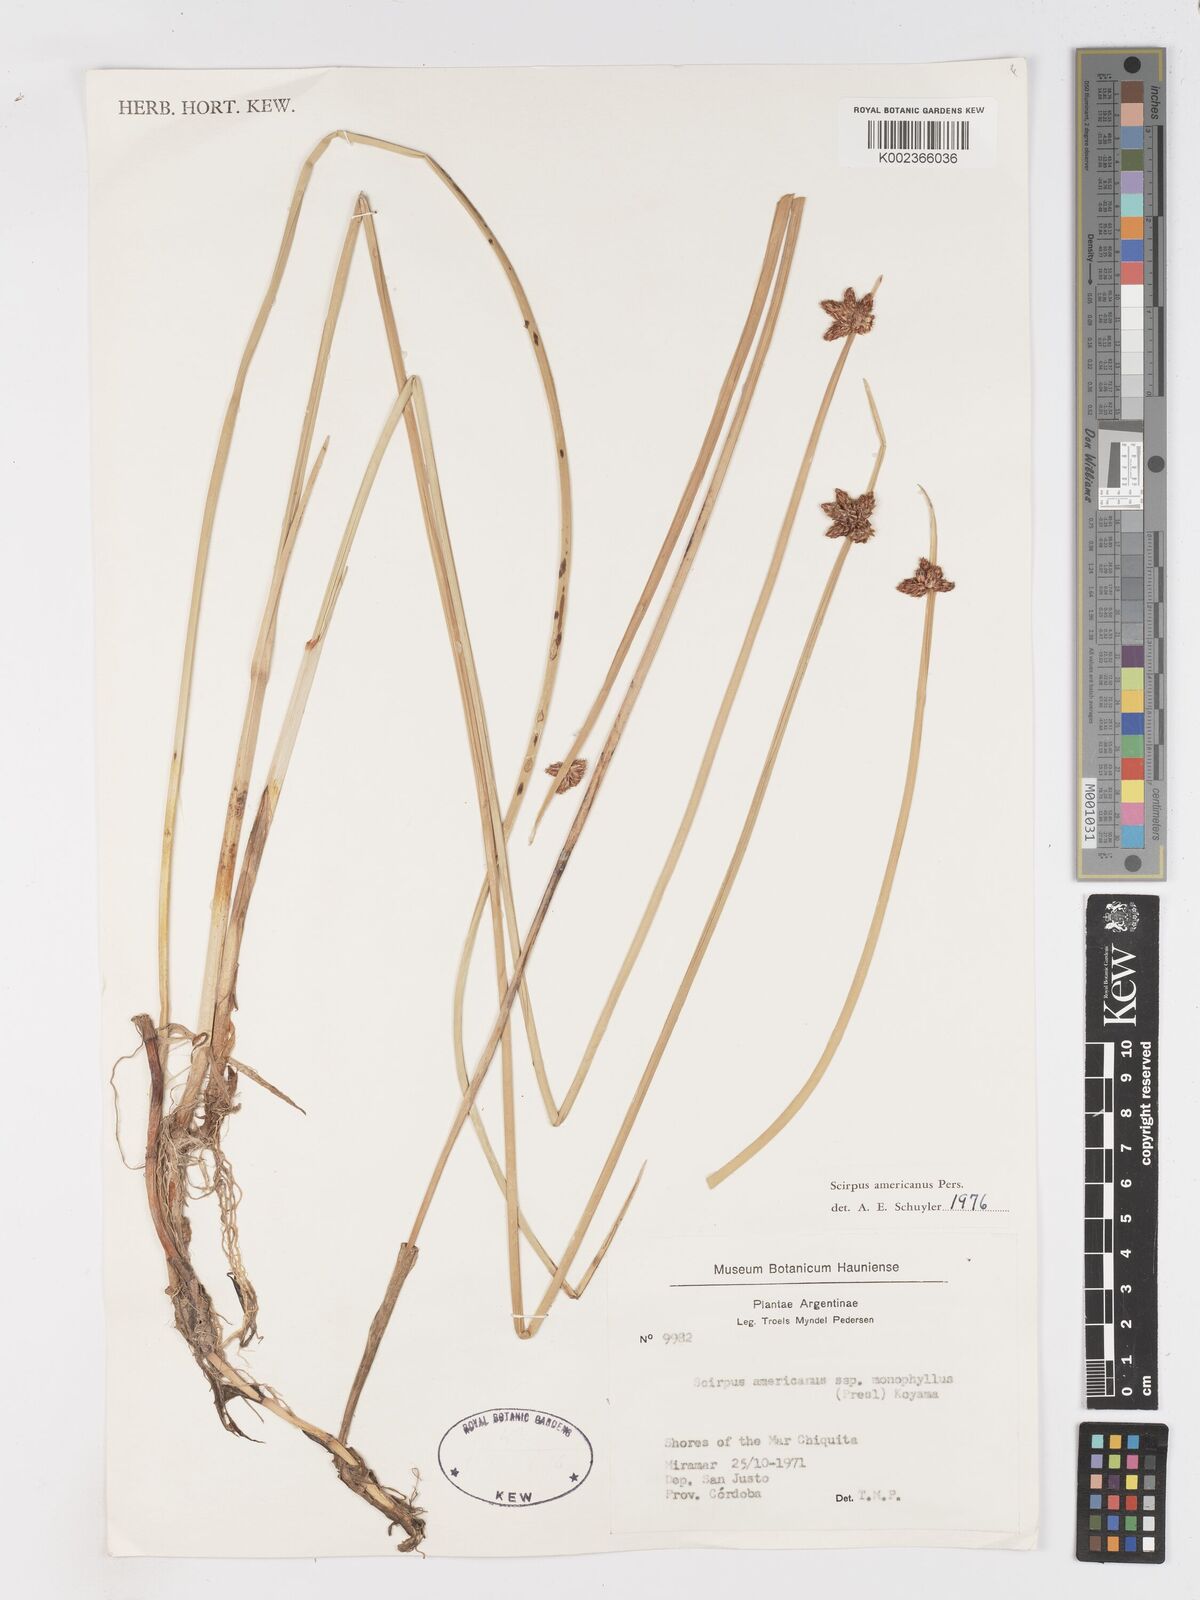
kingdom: Plantae
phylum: Tracheophyta
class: Liliopsida
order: Poales
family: Cyperaceae
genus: Schoenoplectus
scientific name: Schoenoplectus americanus
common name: American three-square bulrush
